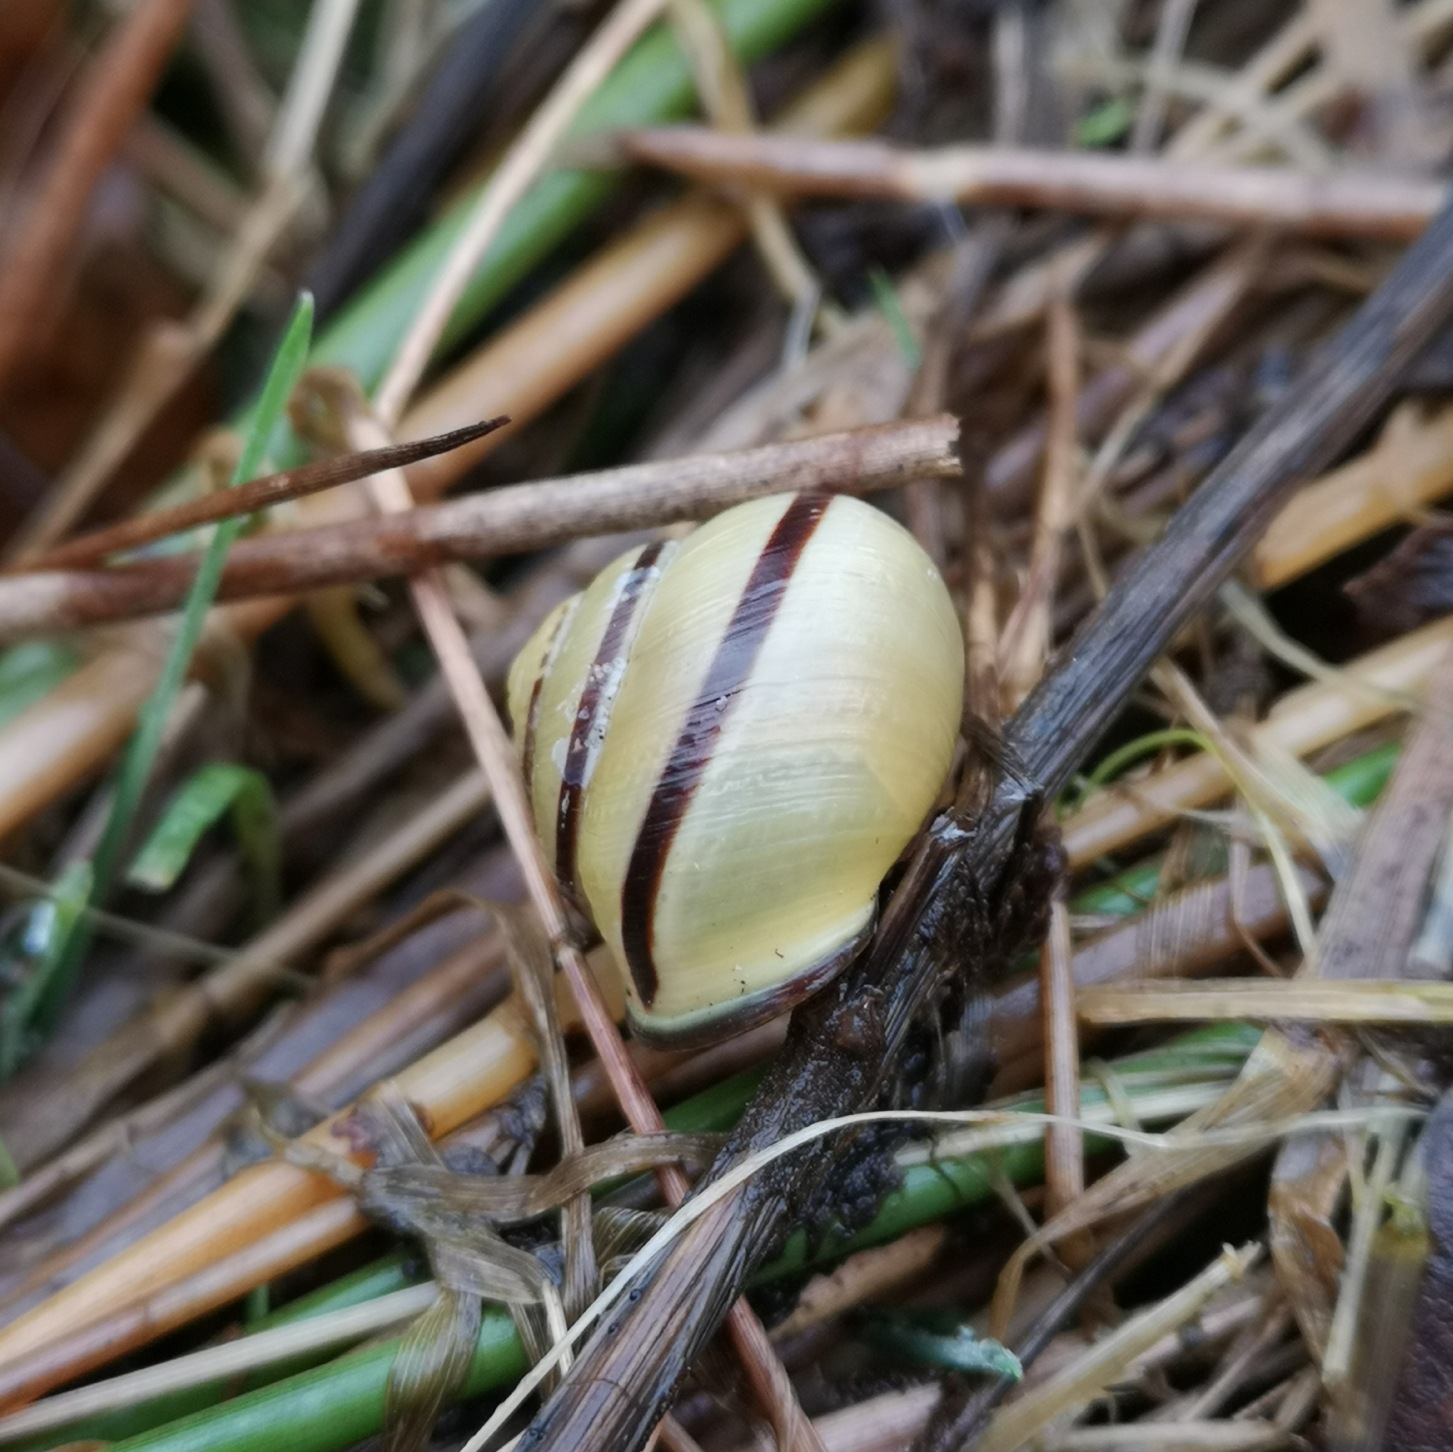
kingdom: Animalia
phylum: Mollusca
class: Gastropoda
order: Stylommatophora
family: Helicidae
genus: Cepaea
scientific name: Cepaea nemoralis
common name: Lundsnegl
